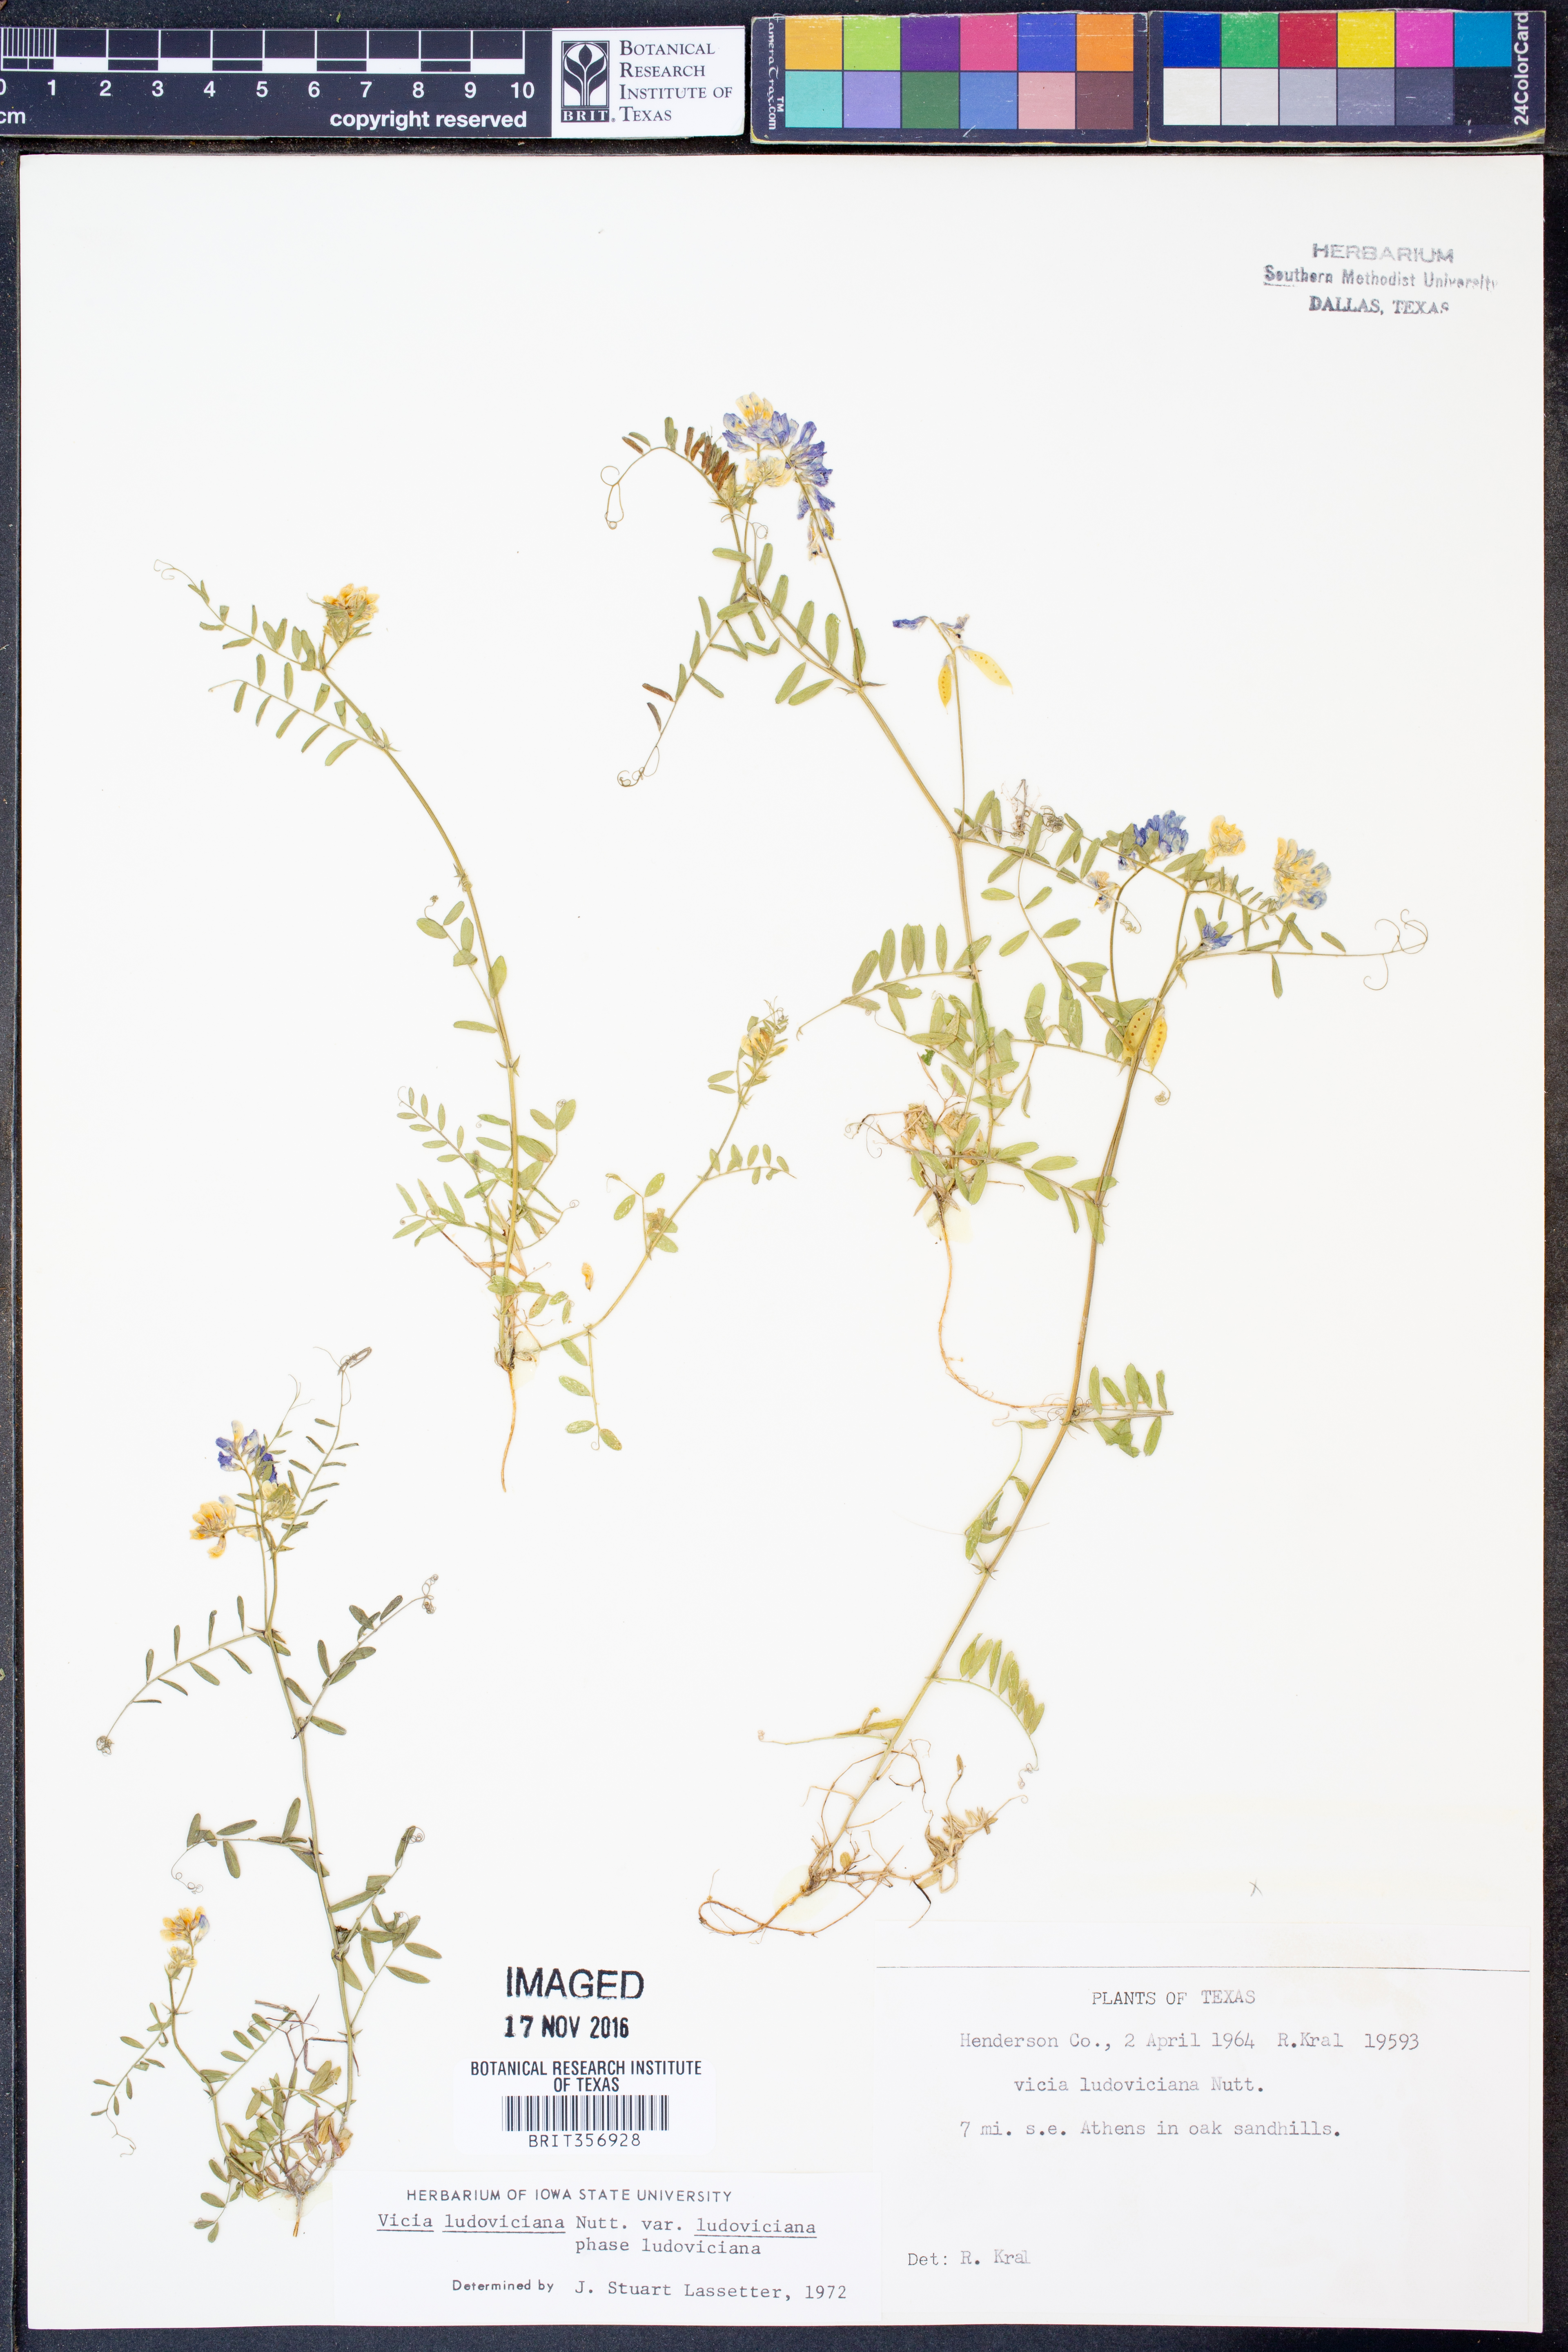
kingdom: Plantae
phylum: Tracheophyta
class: Magnoliopsida
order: Fabales
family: Fabaceae
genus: Vicia
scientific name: Vicia ludoviciana
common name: Louisiana vetch
